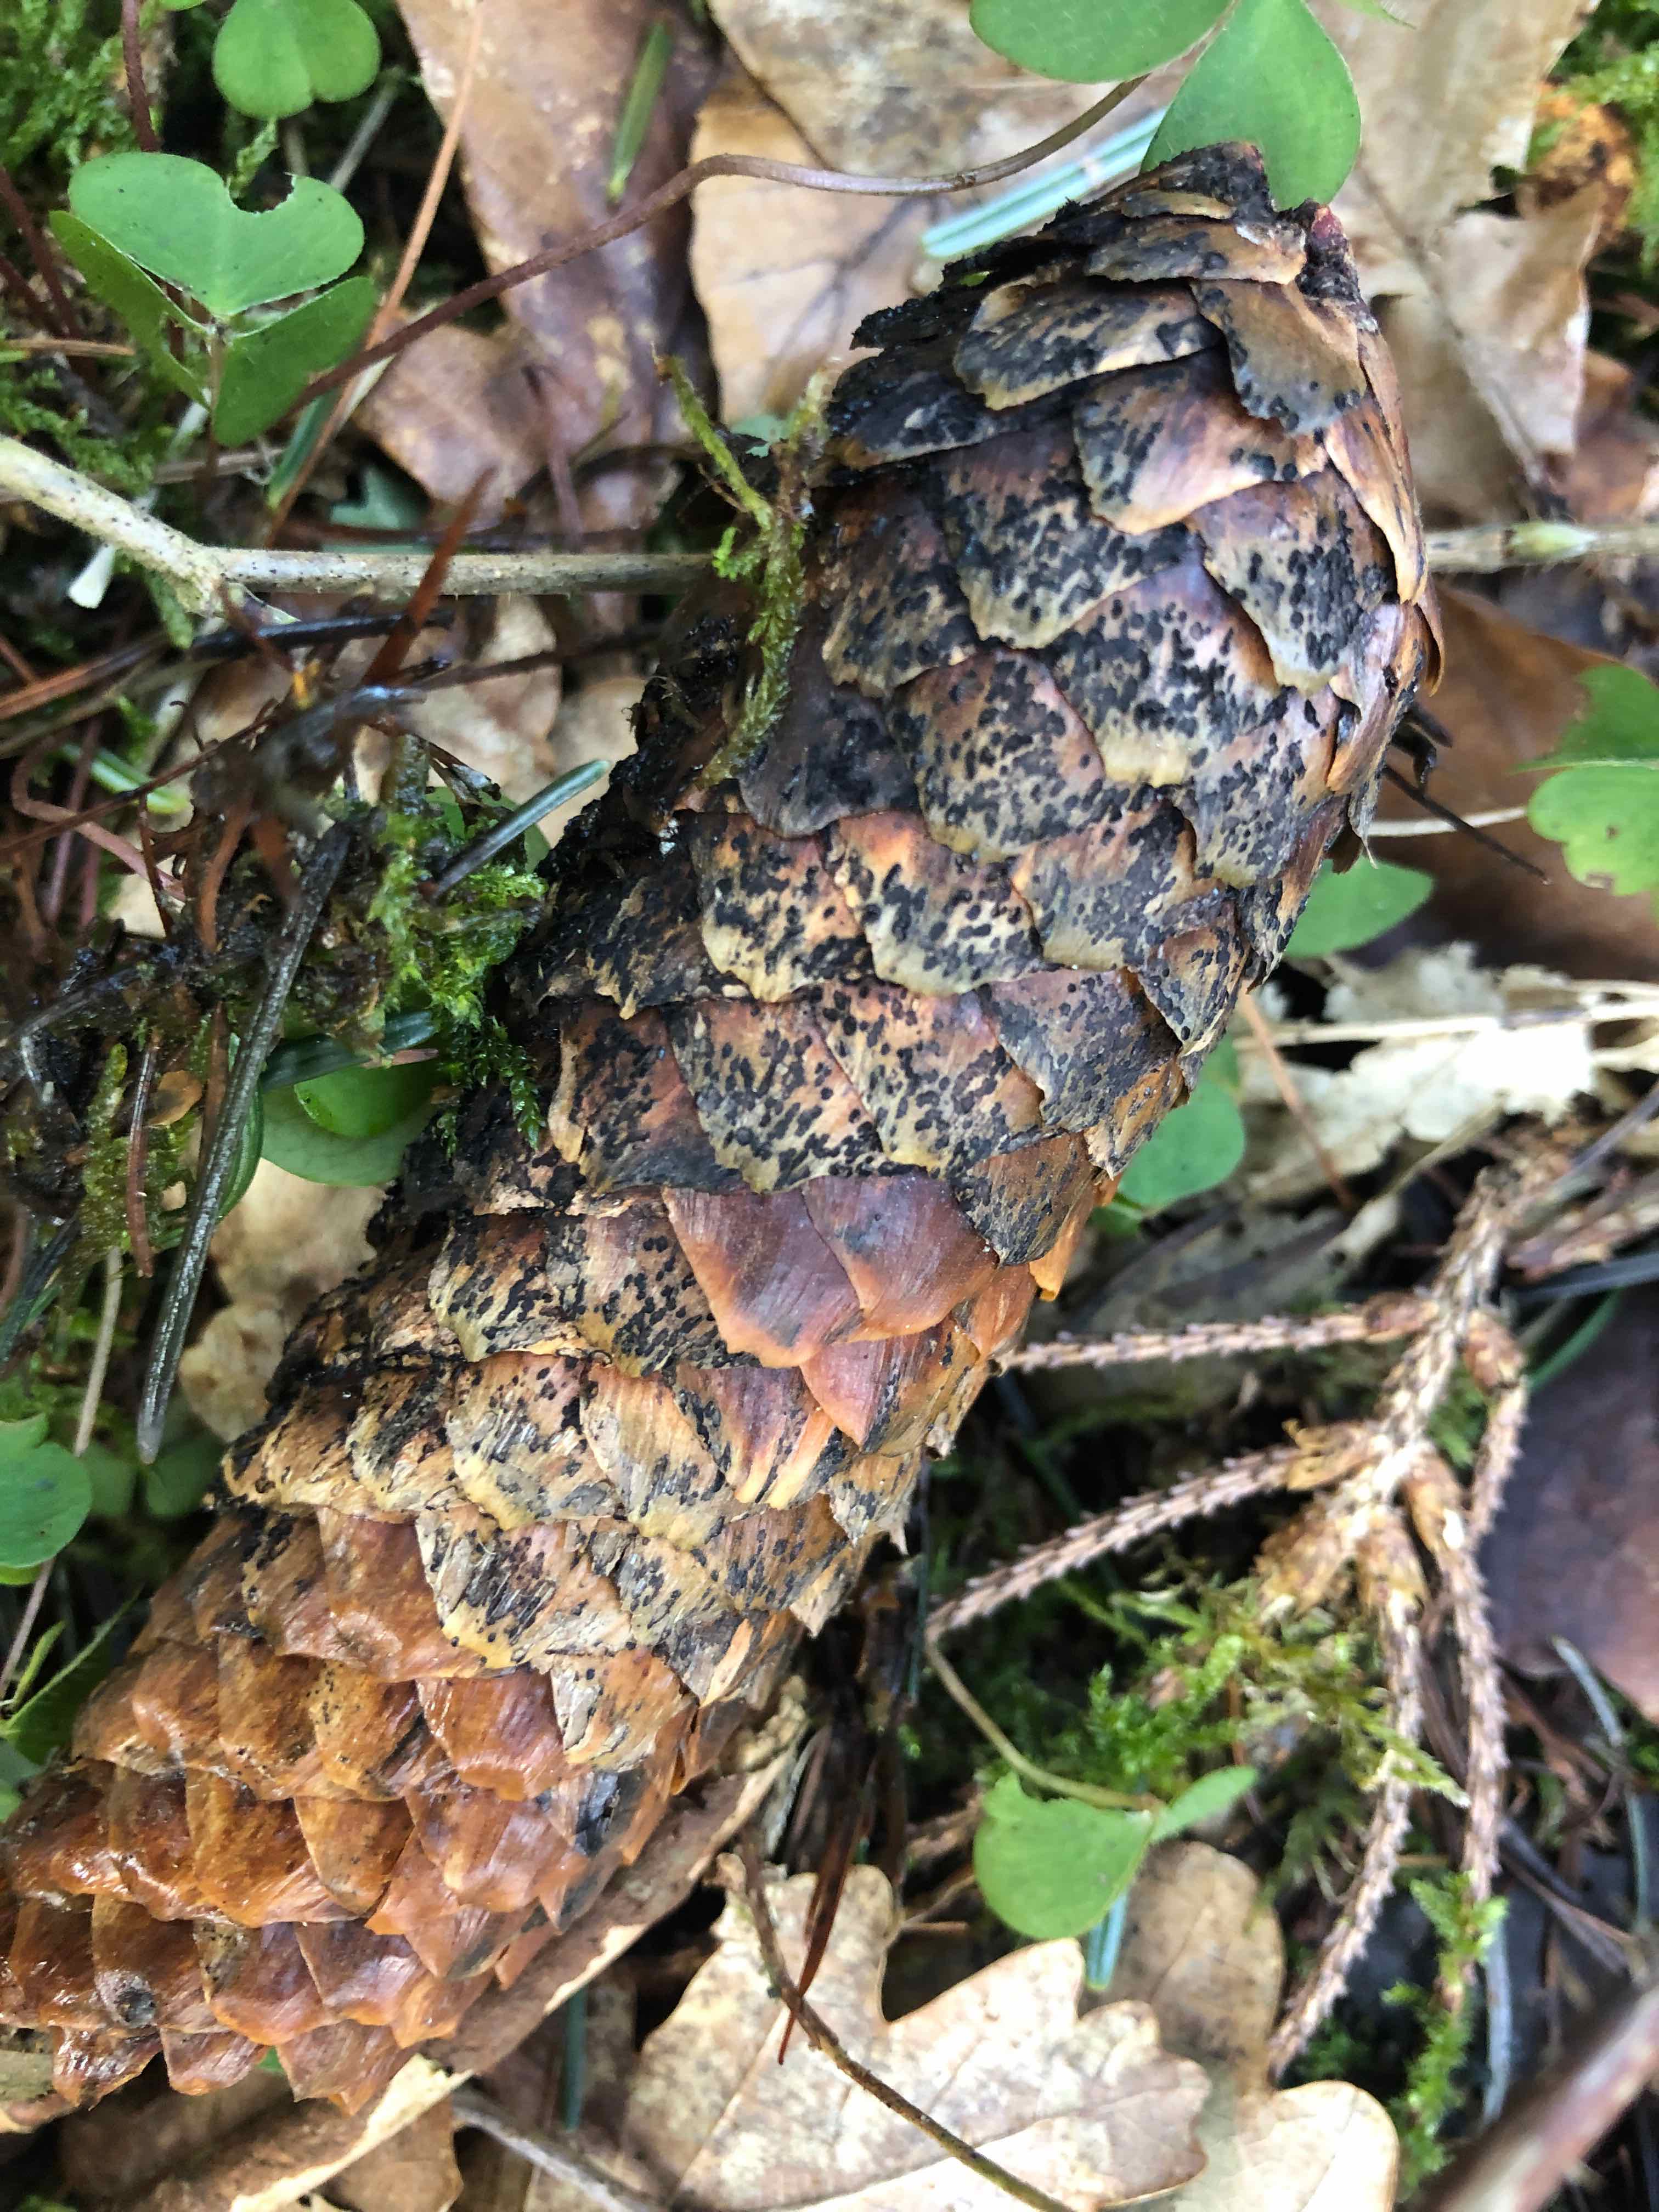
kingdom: Fungi
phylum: Ascomycota
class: Sordariomycetes
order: Diaporthales
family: Gnomoniaceae
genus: Sirococcus
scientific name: Sirococcus conigenus
